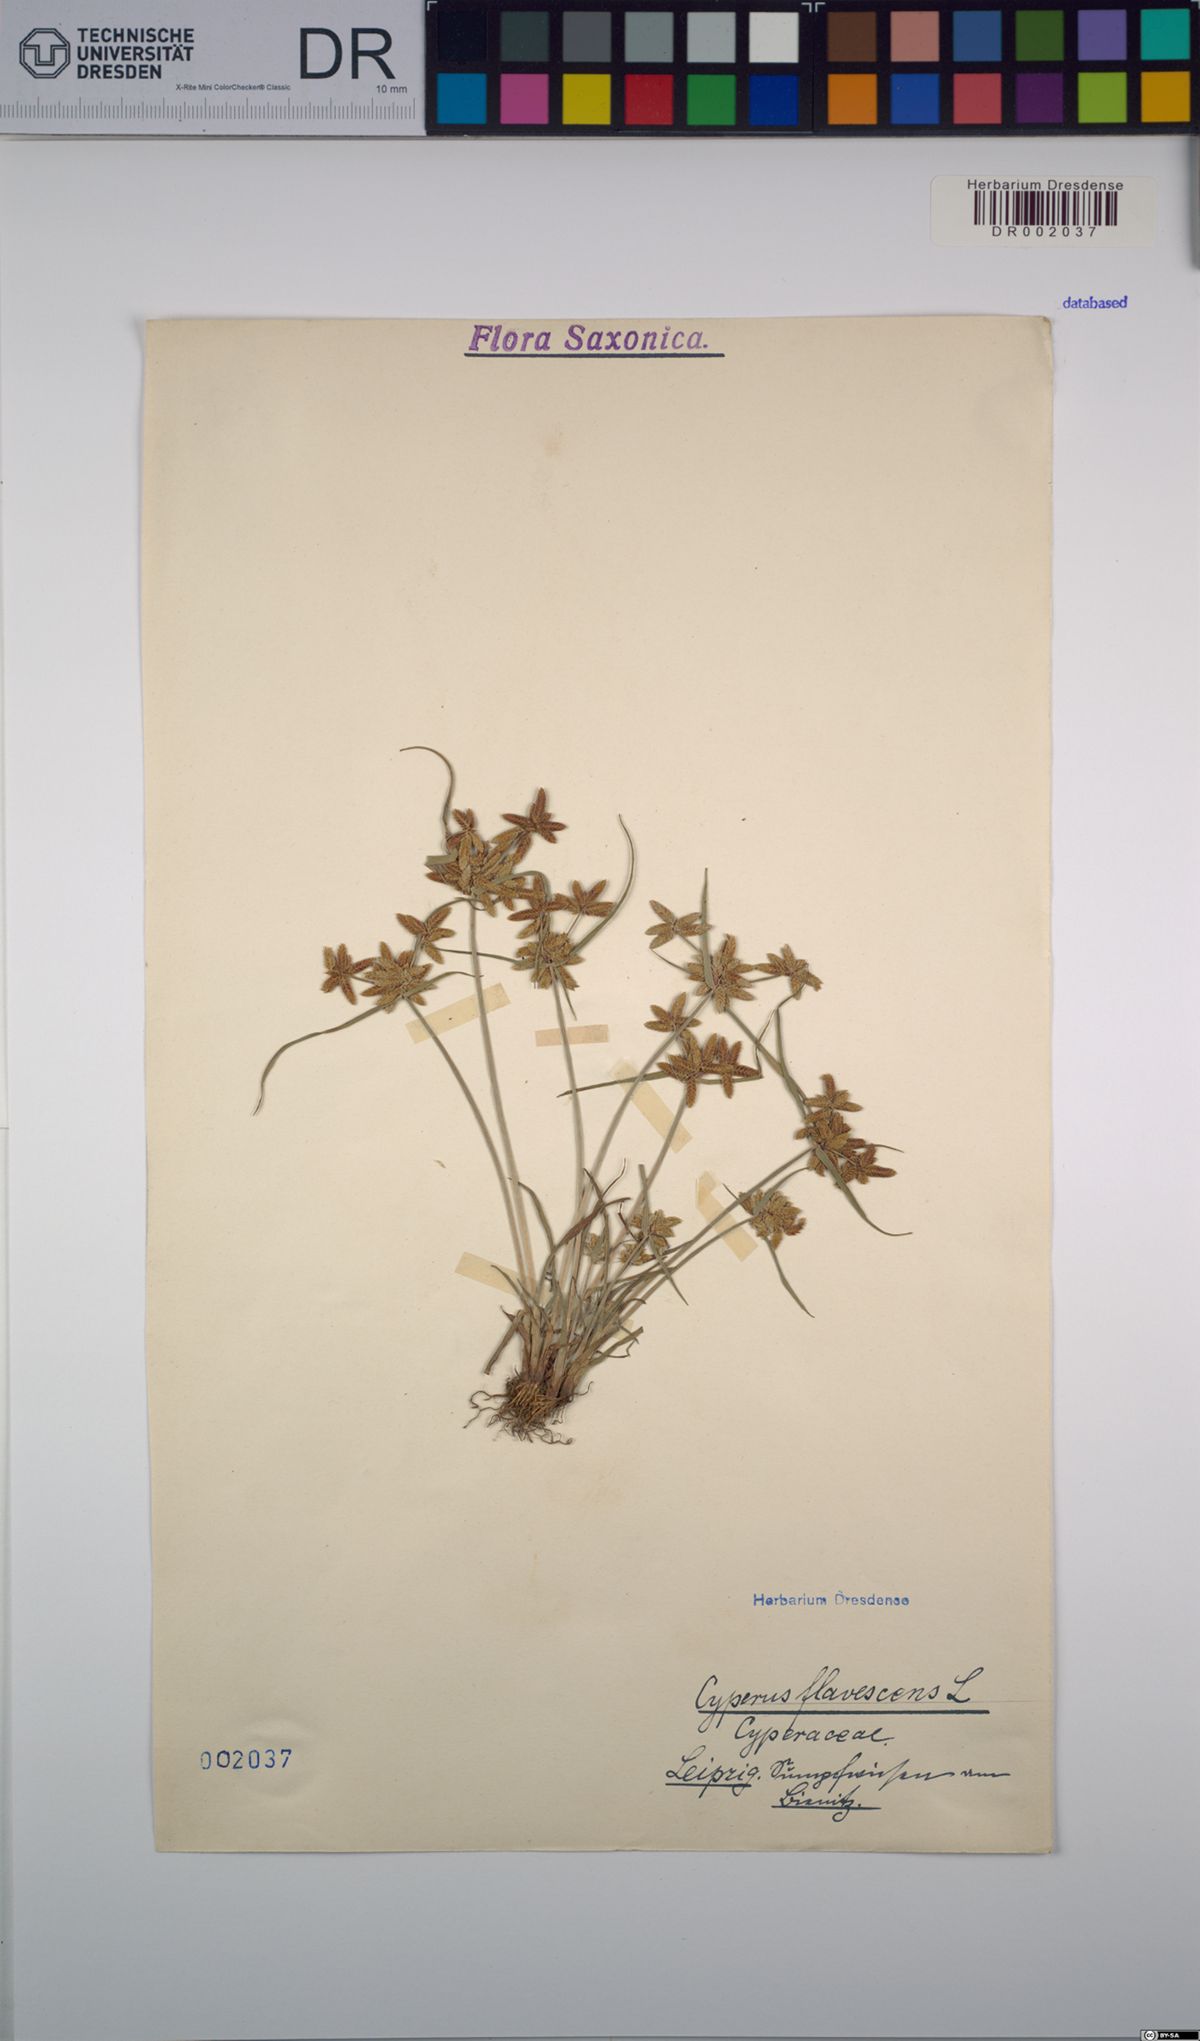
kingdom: Plantae
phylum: Tracheophyta
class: Liliopsida
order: Poales
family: Cyperaceae
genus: Cyperus
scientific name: Cyperus flavescens
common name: Yellow galingale
